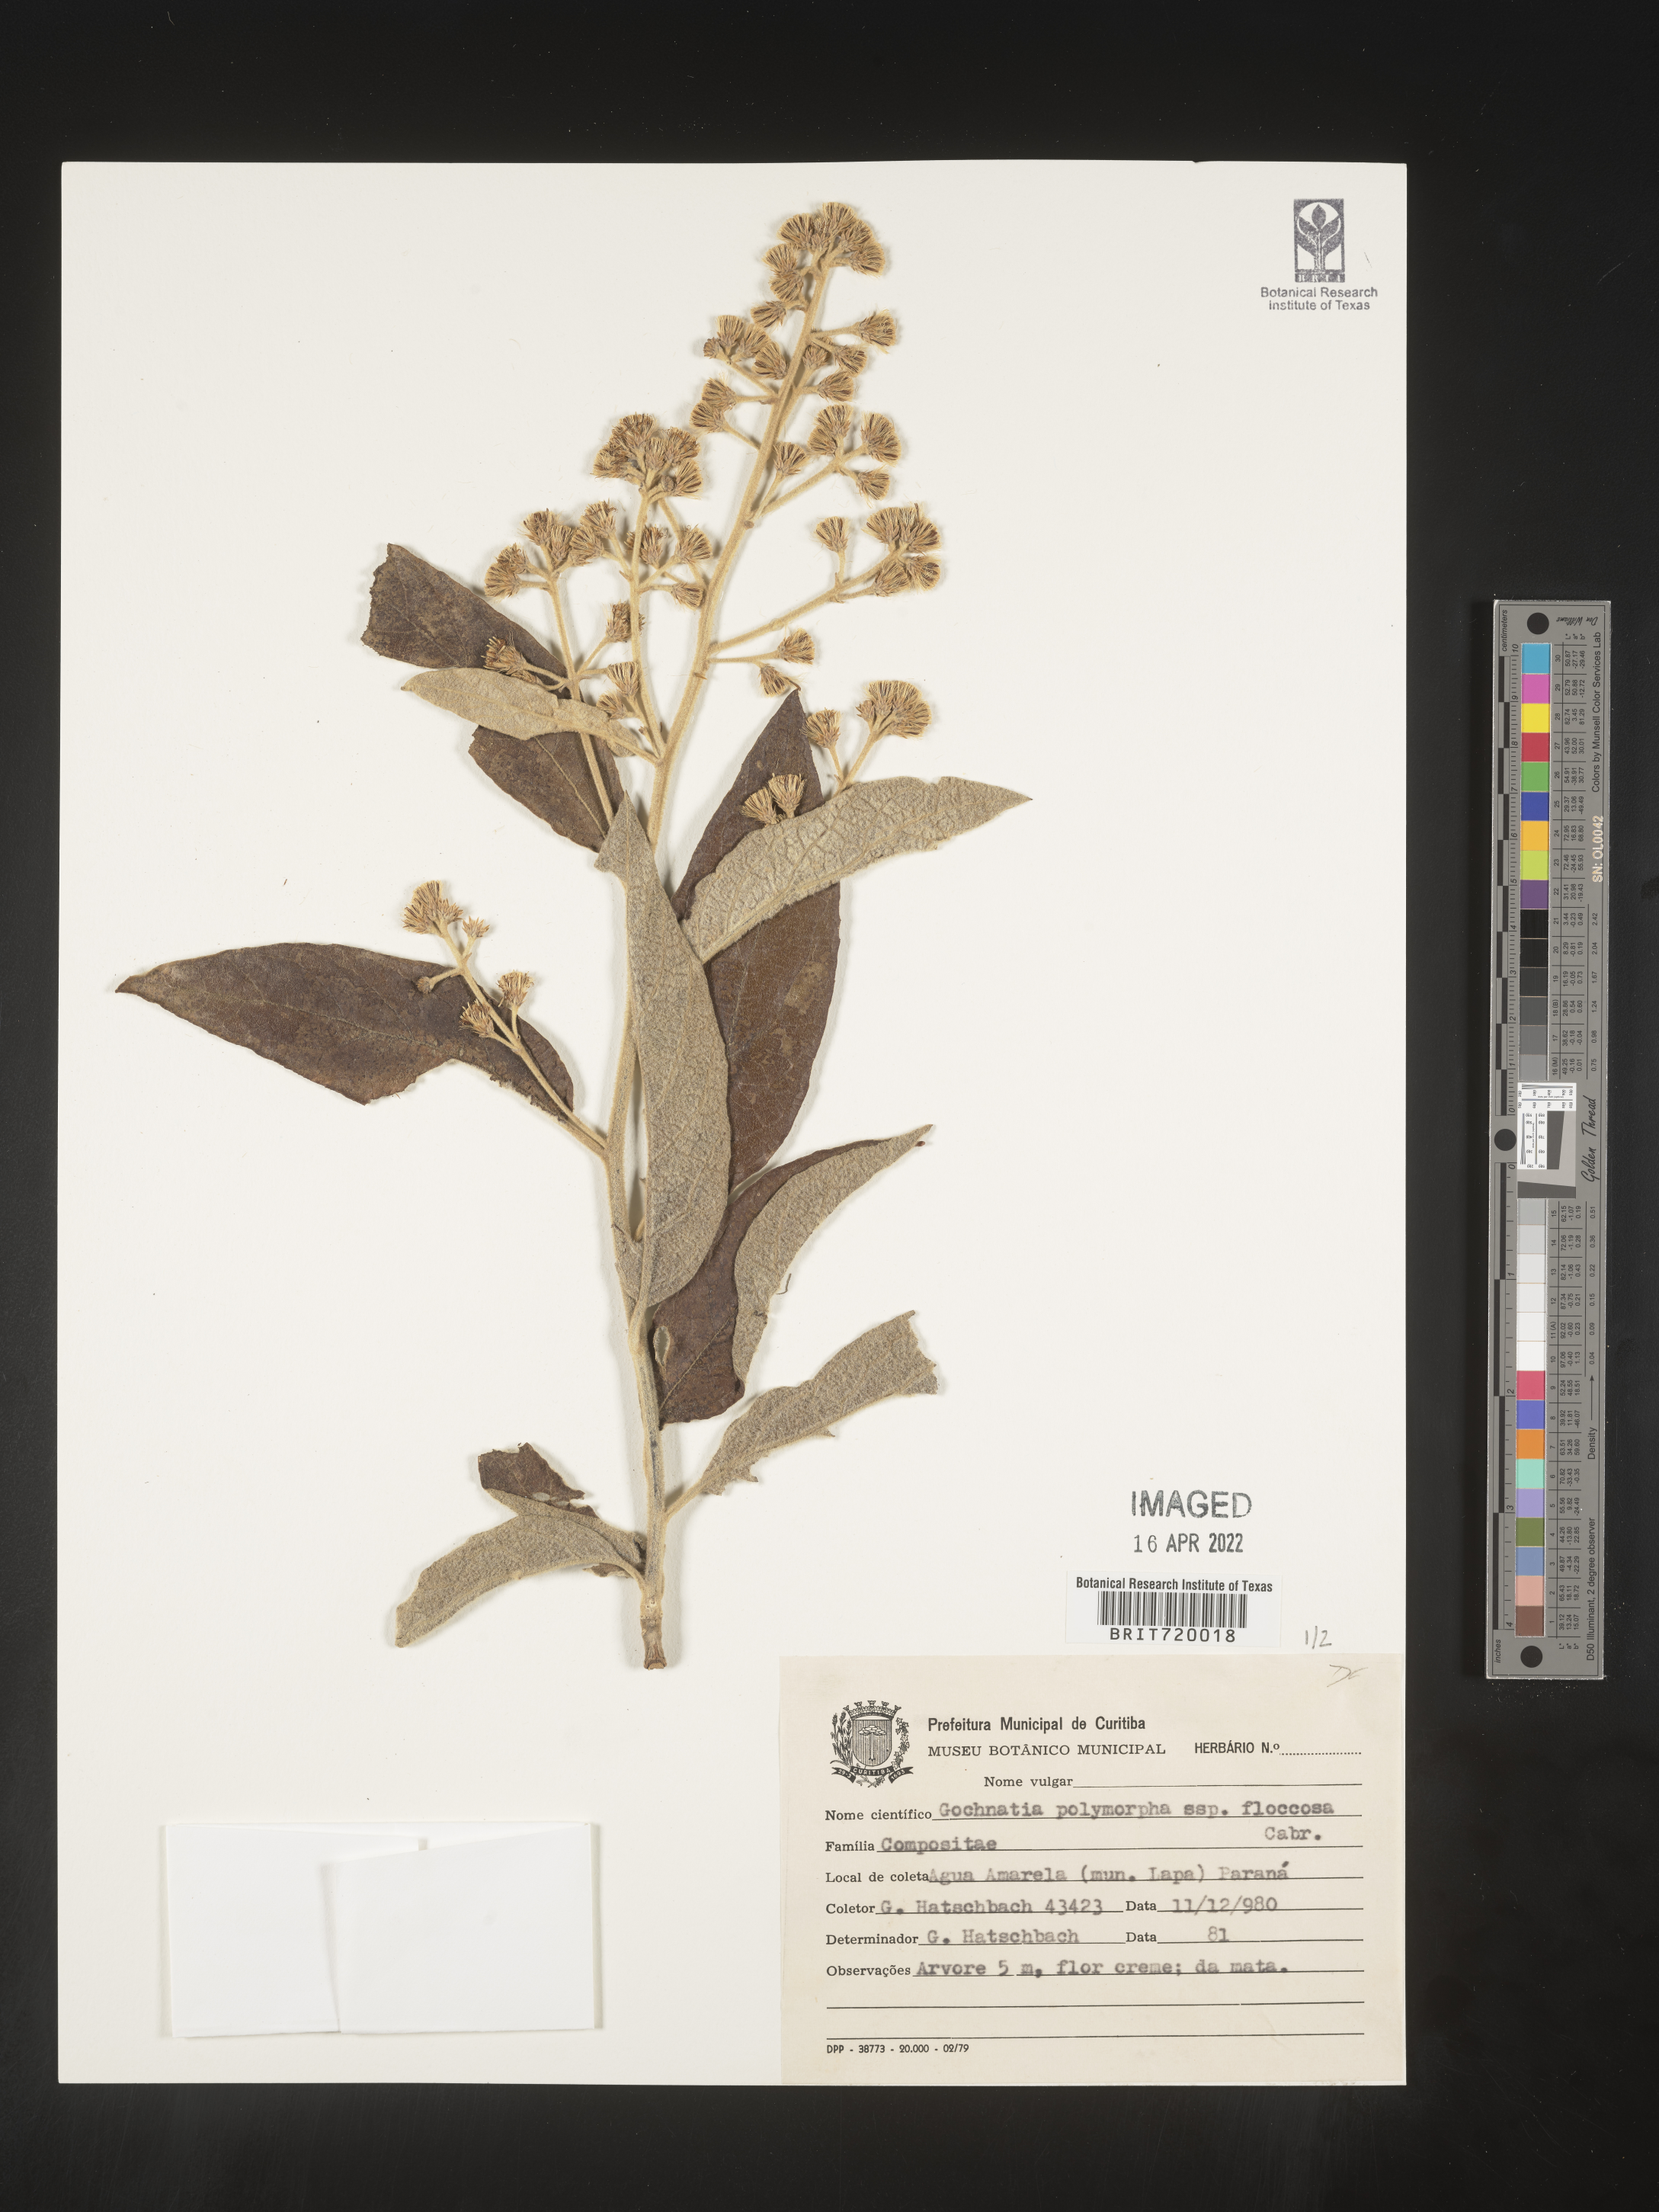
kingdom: Plantae
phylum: Tracheophyta
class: Magnoliopsida
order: Asterales
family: Asteraceae
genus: Gochnatia
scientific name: Gochnatia
